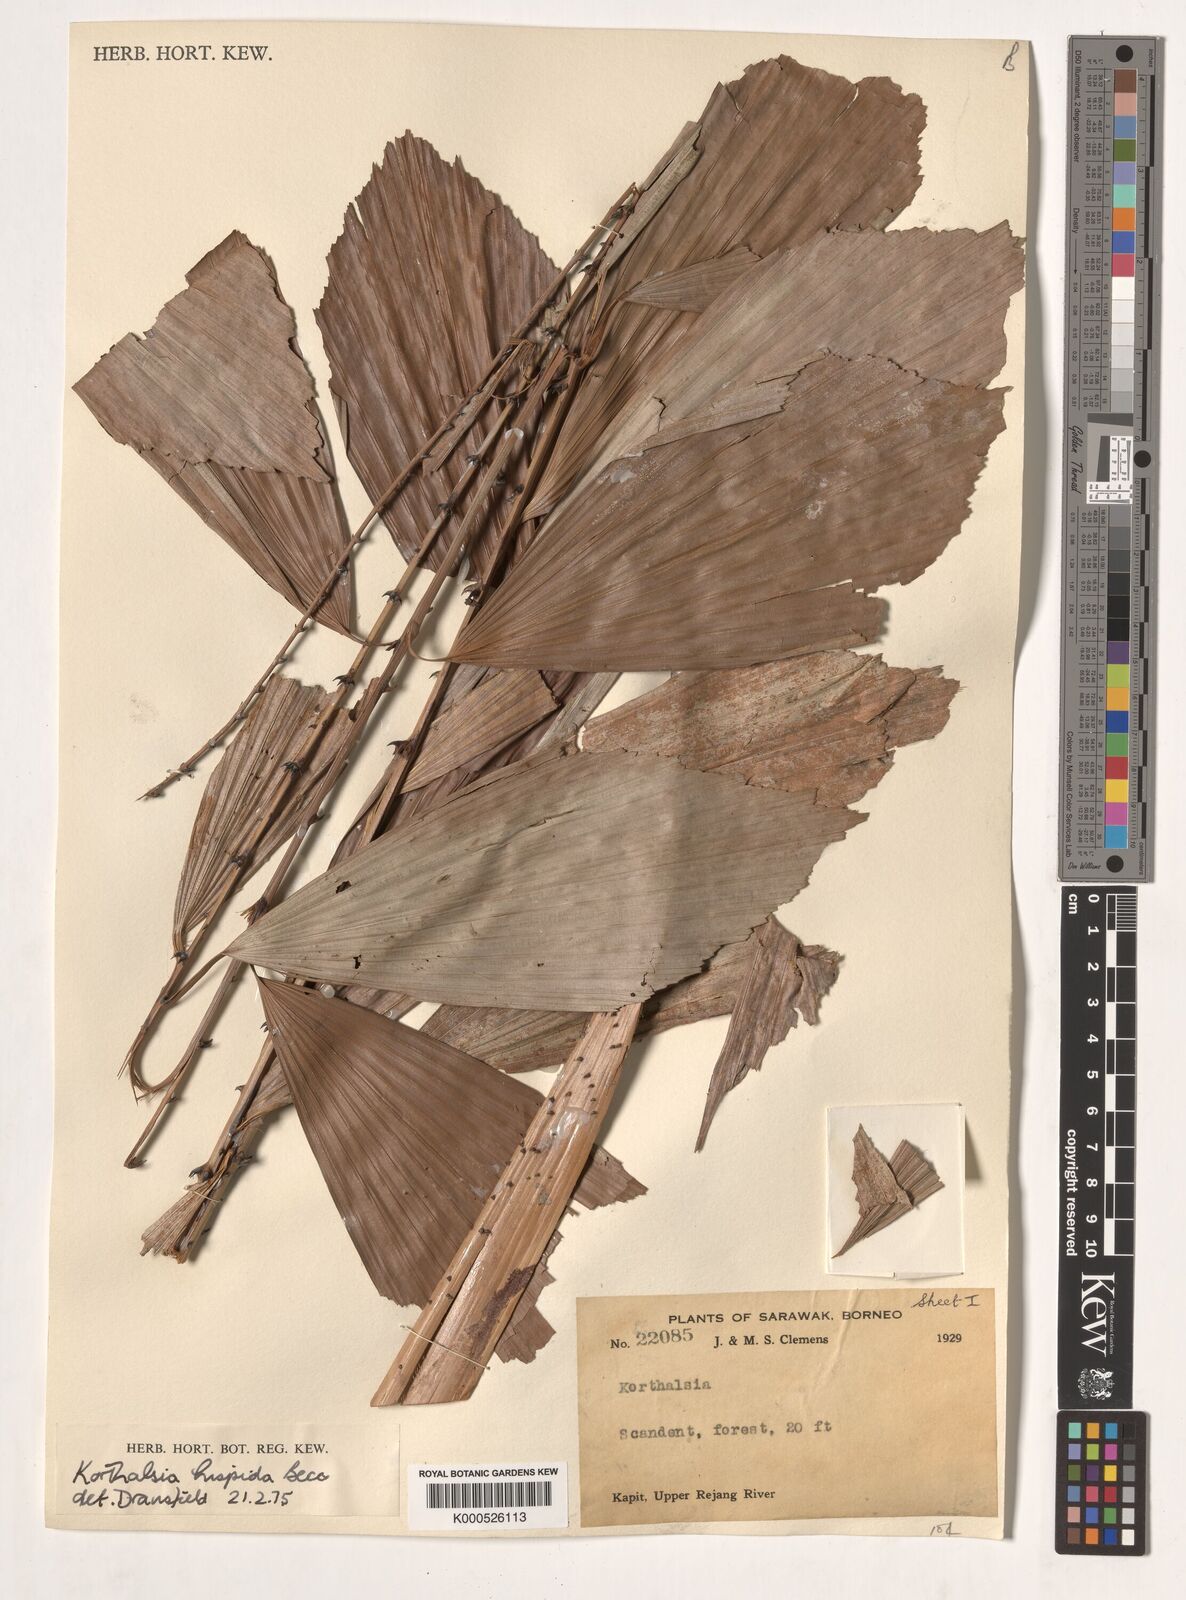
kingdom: Plantae
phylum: Tracheophyta
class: Liliopsida
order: Arecales
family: Arecaceae
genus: Korthalsia
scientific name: Korthalsia hispida
